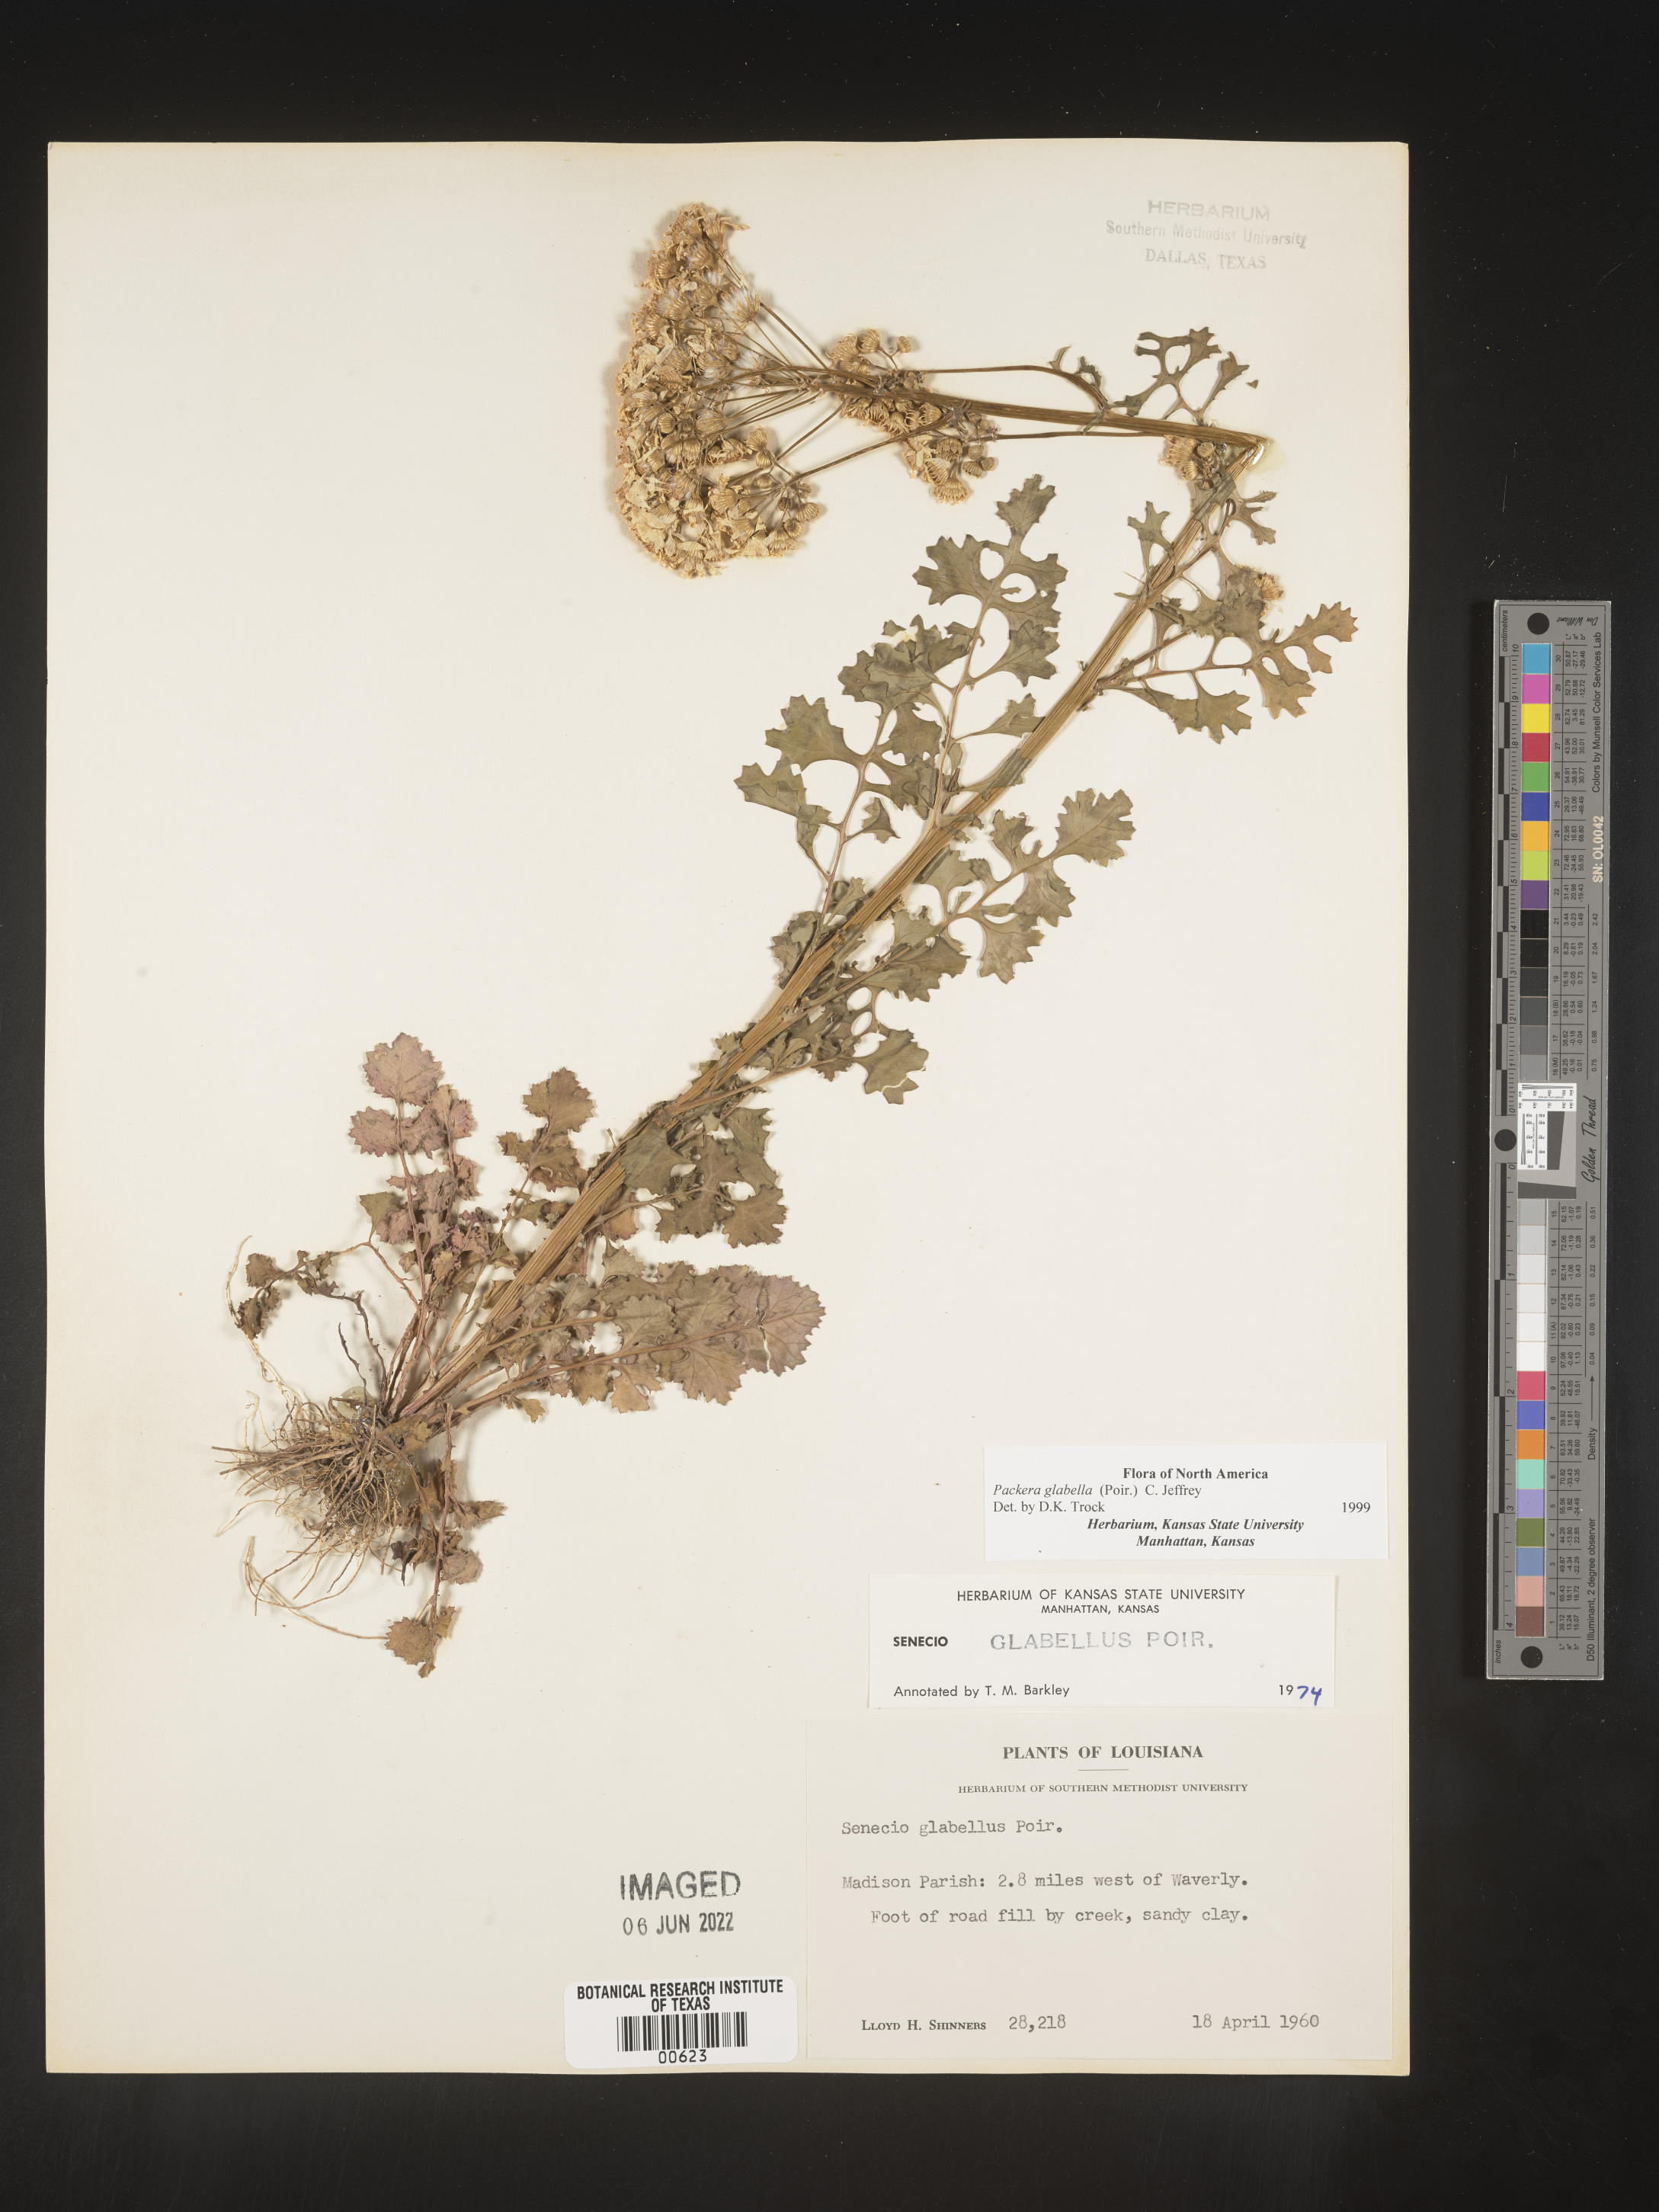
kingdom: Plantae
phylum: Tracheophyta
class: Magnoliopsida
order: Asterales
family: Asteraceae
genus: Packera
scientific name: Packera glabella
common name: Butterweed
